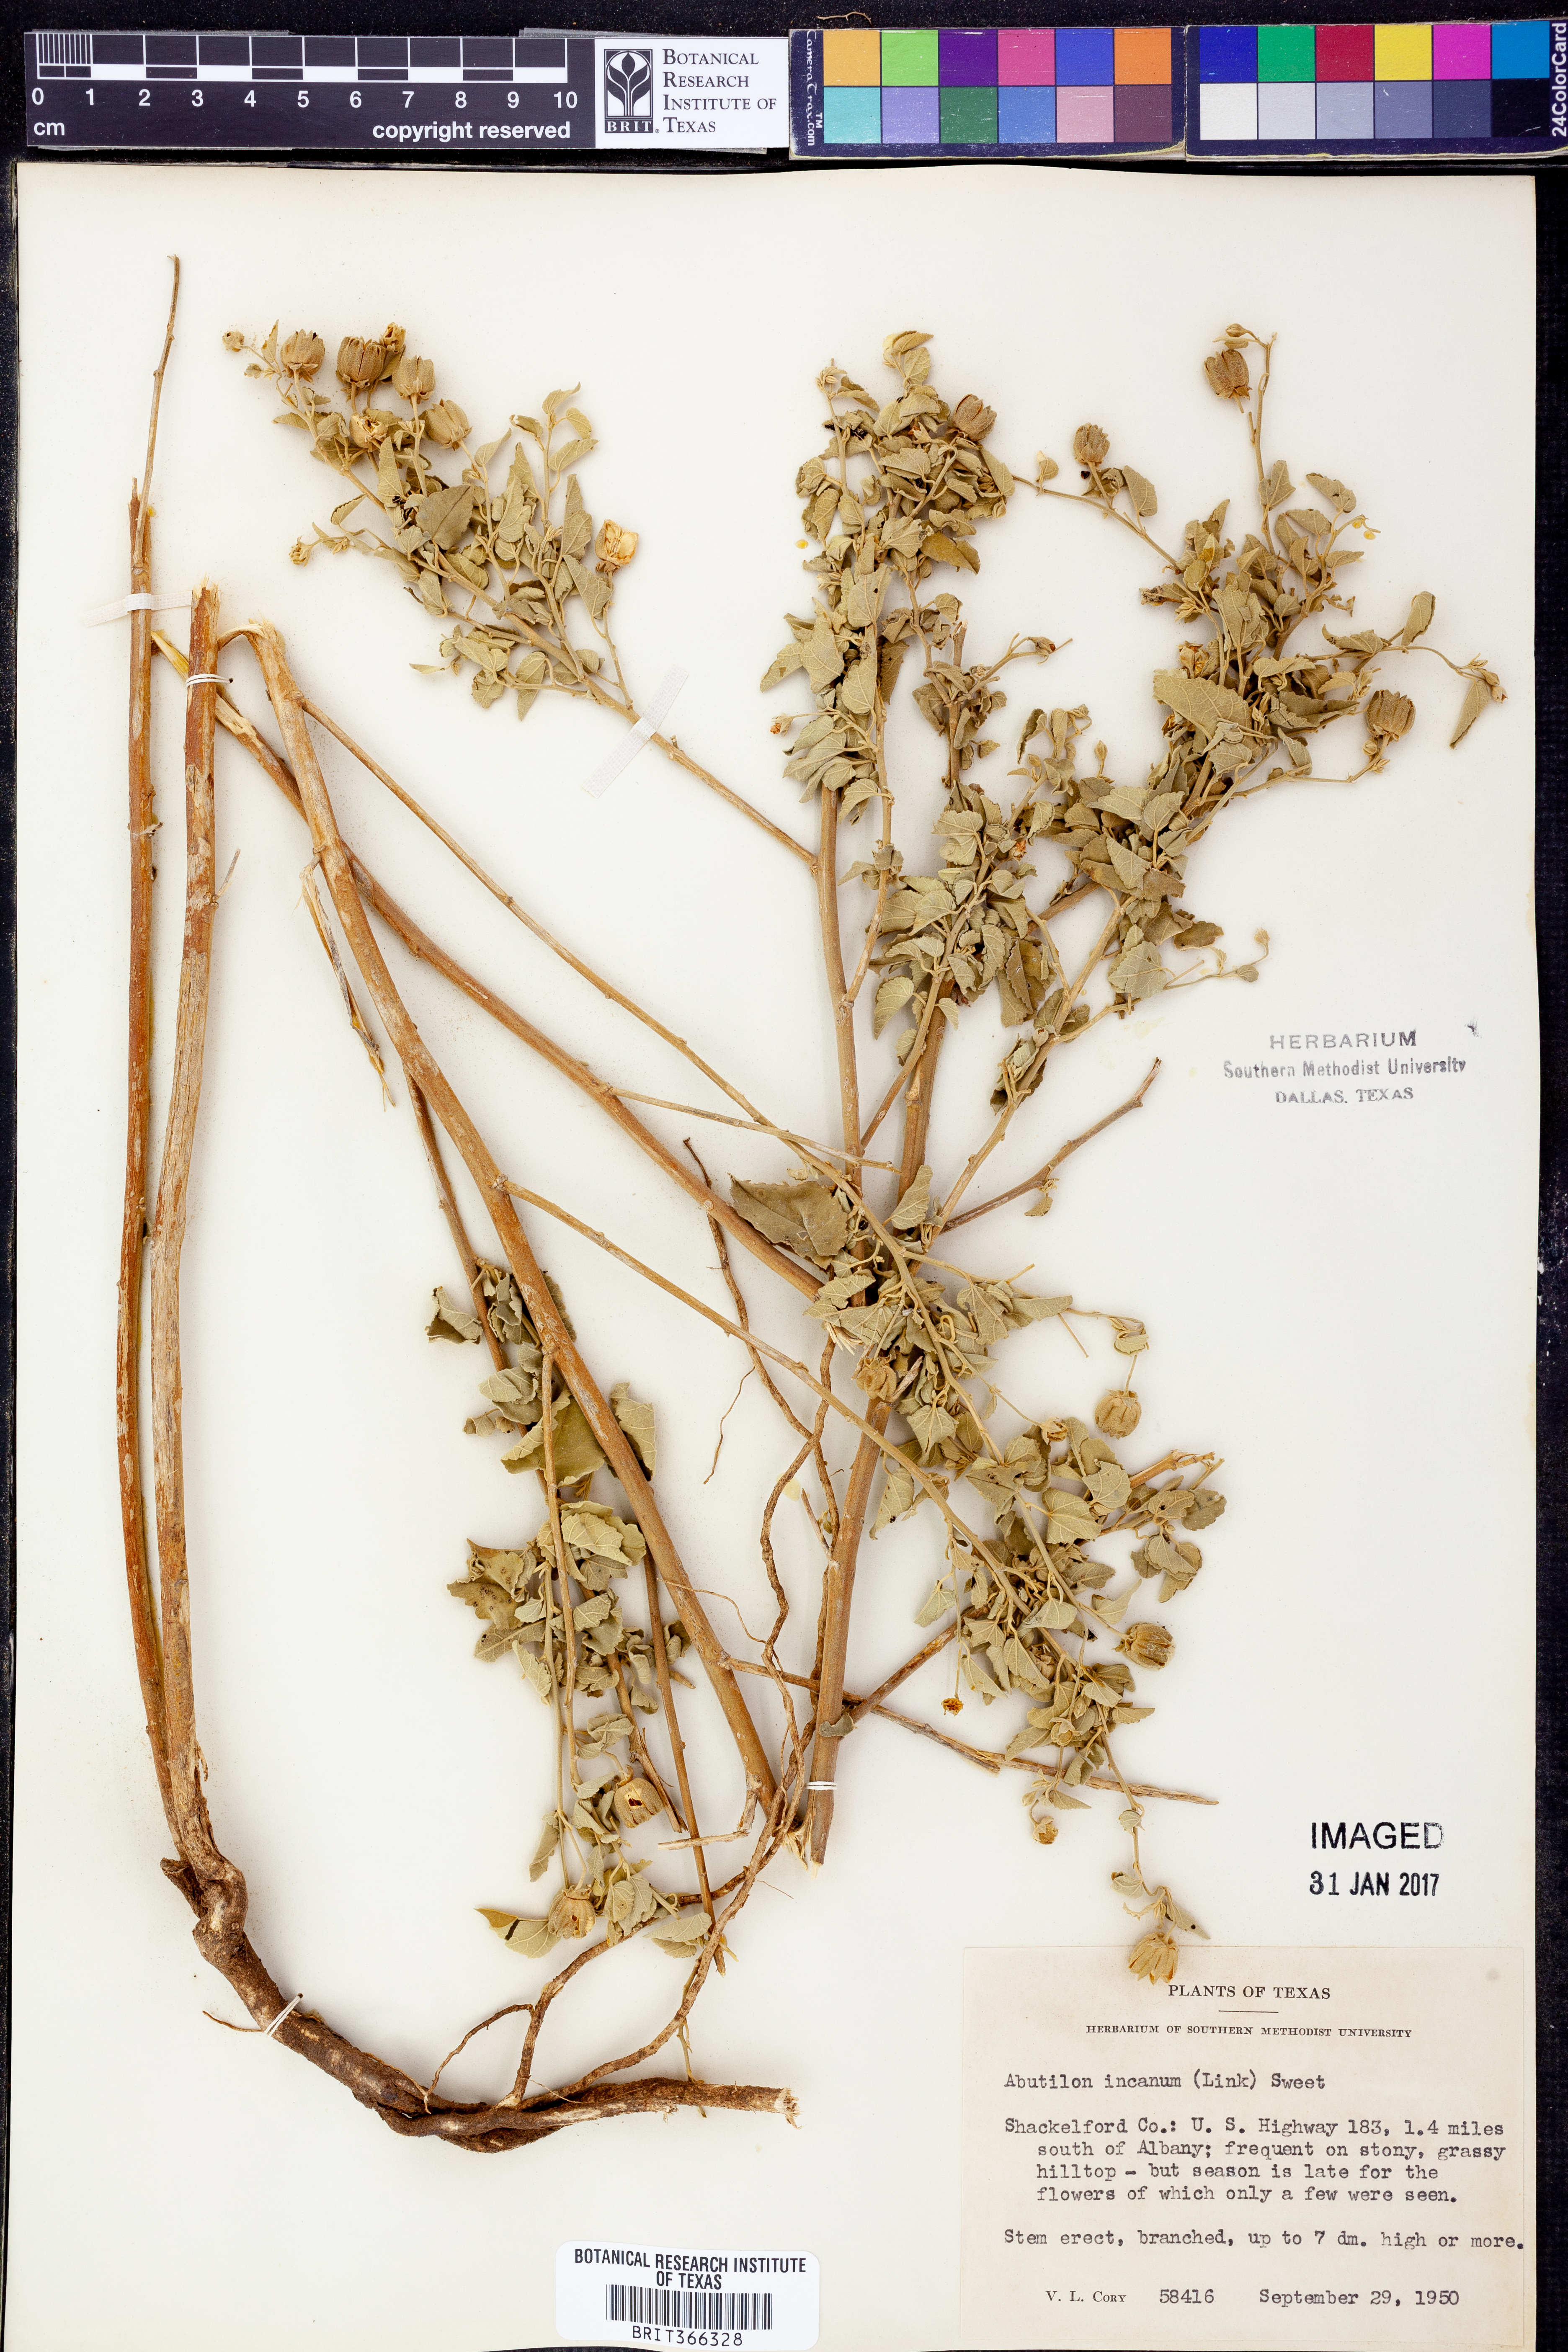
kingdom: Plantae
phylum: Tracheophyta
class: Magnoliopsida
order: Malvales
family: Malvaceae
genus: Abutilon
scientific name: Abutilon incanum
